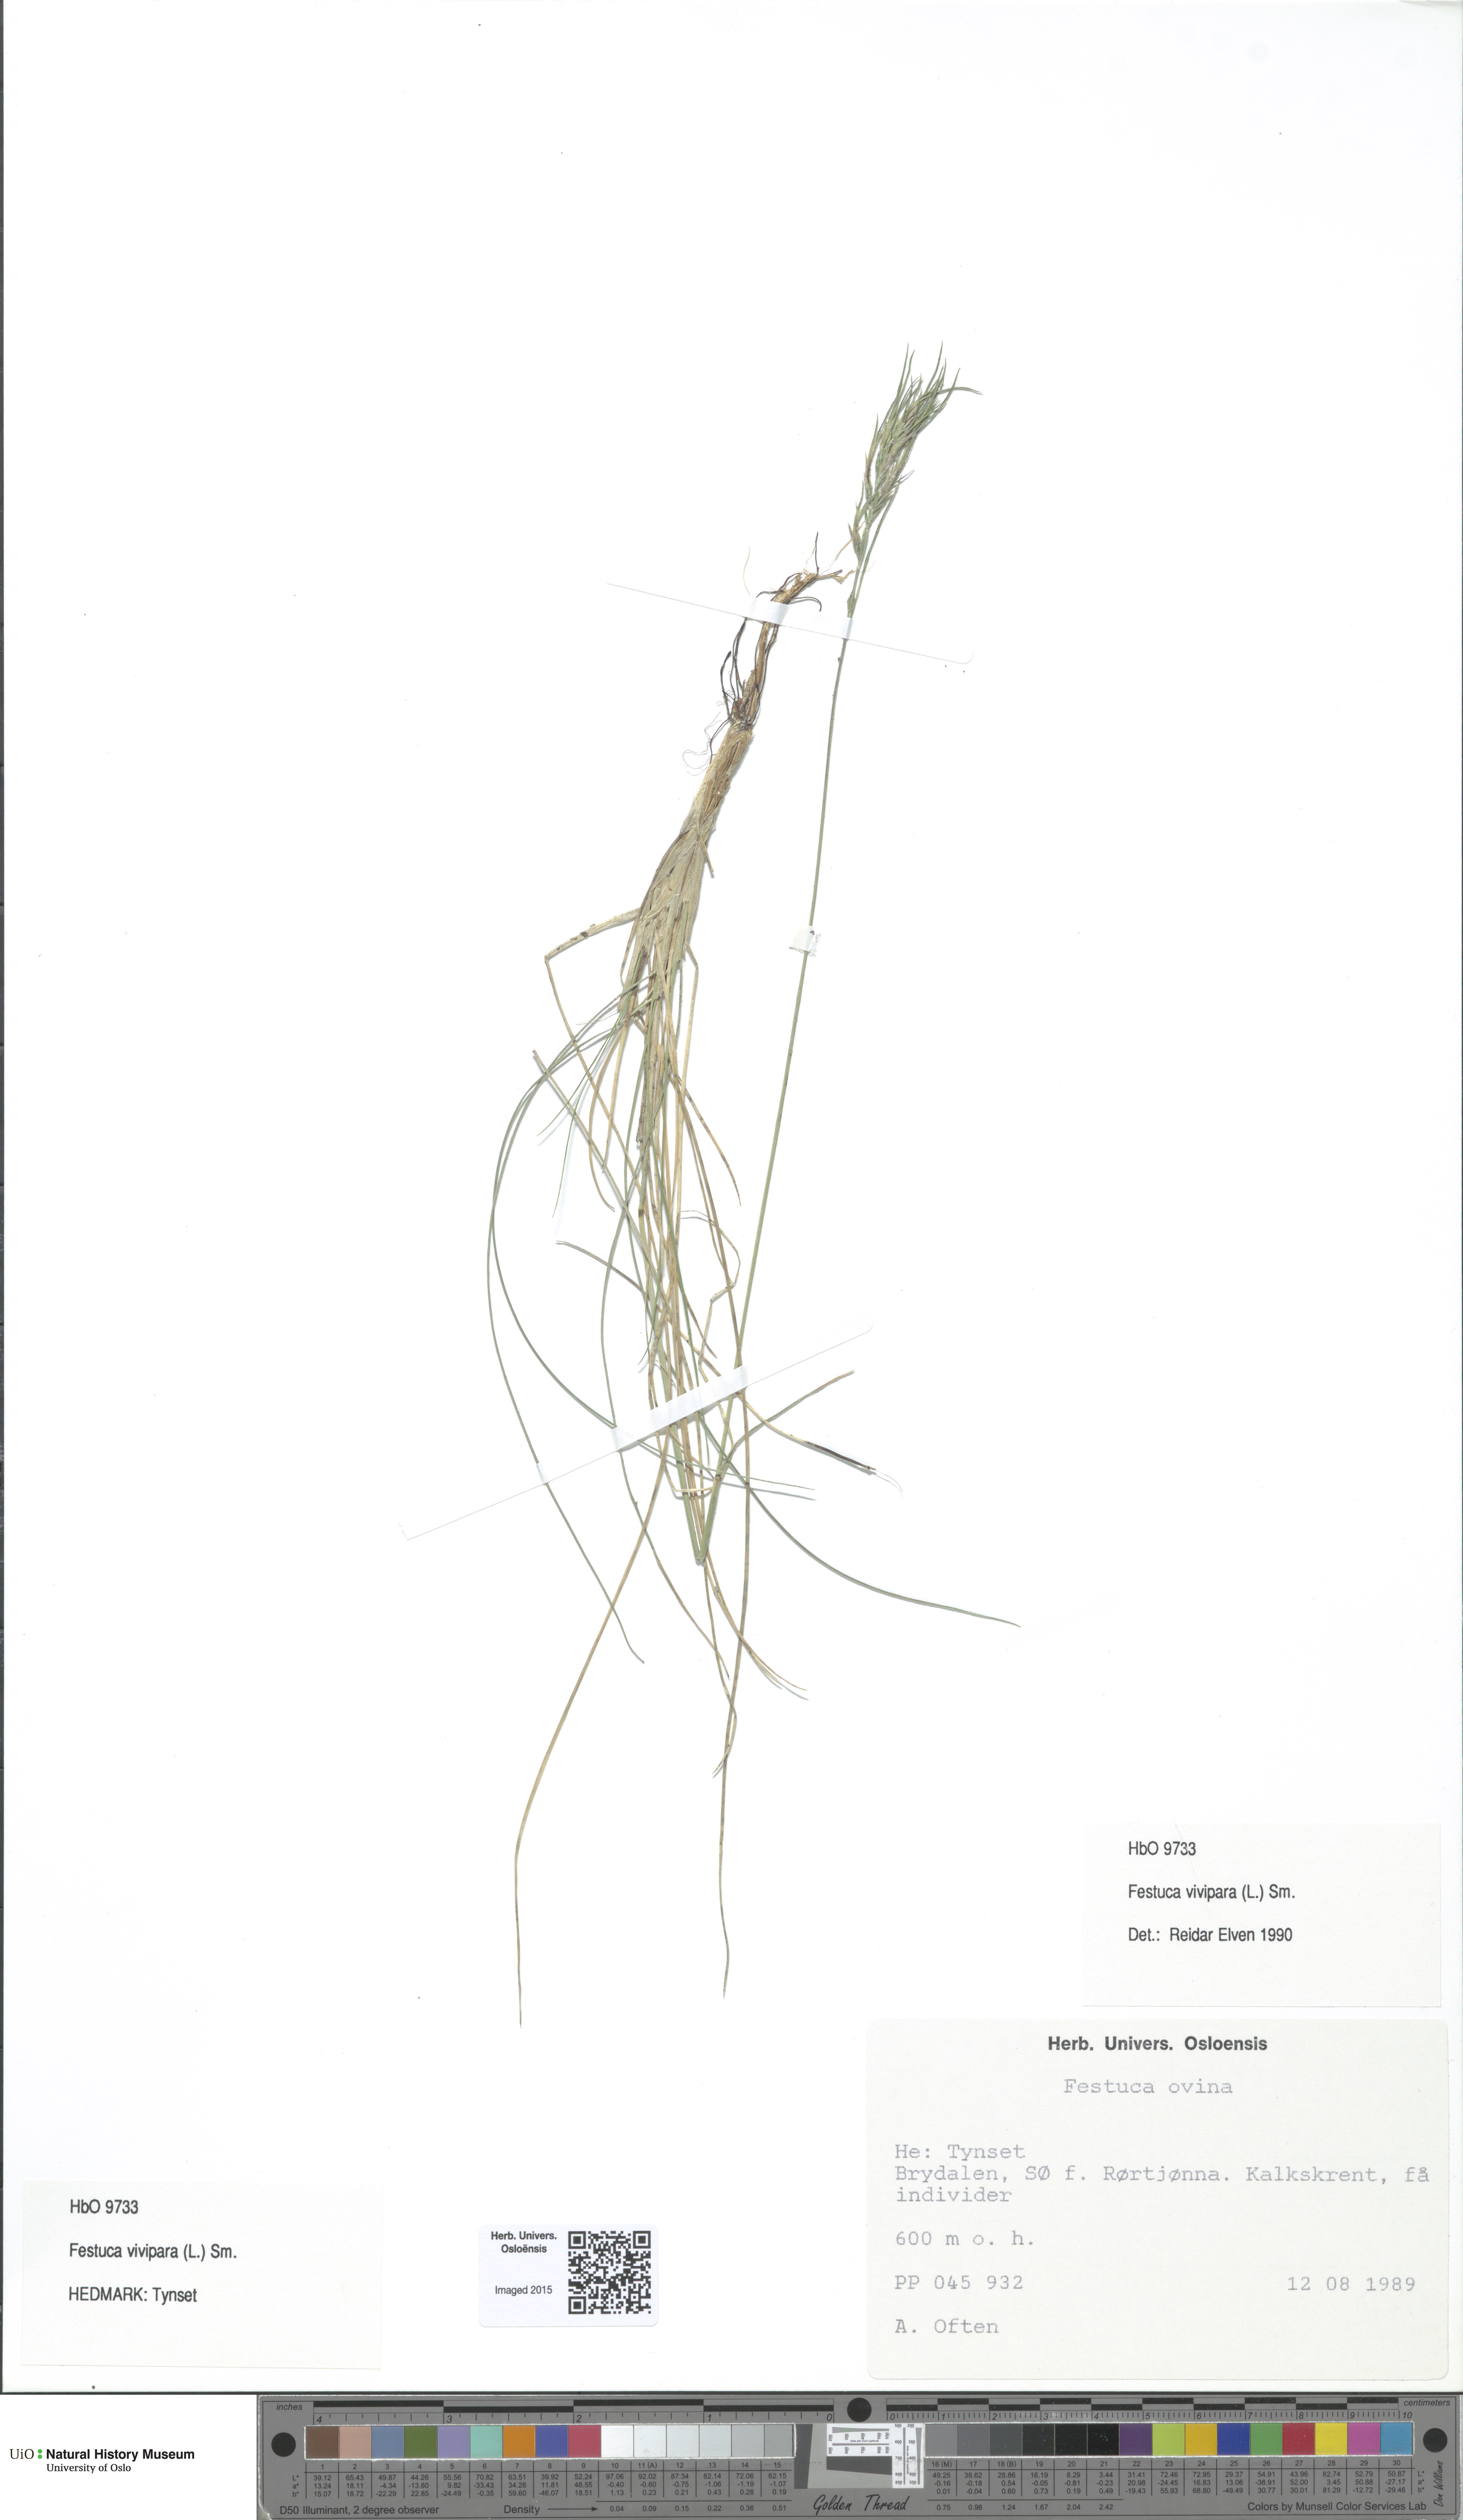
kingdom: Plantae
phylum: Tracheophyta
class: Liliopsida
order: Poales
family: Poaceae
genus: Festuca
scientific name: Festuca vivipara
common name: Viviparous sheep's-fescue
